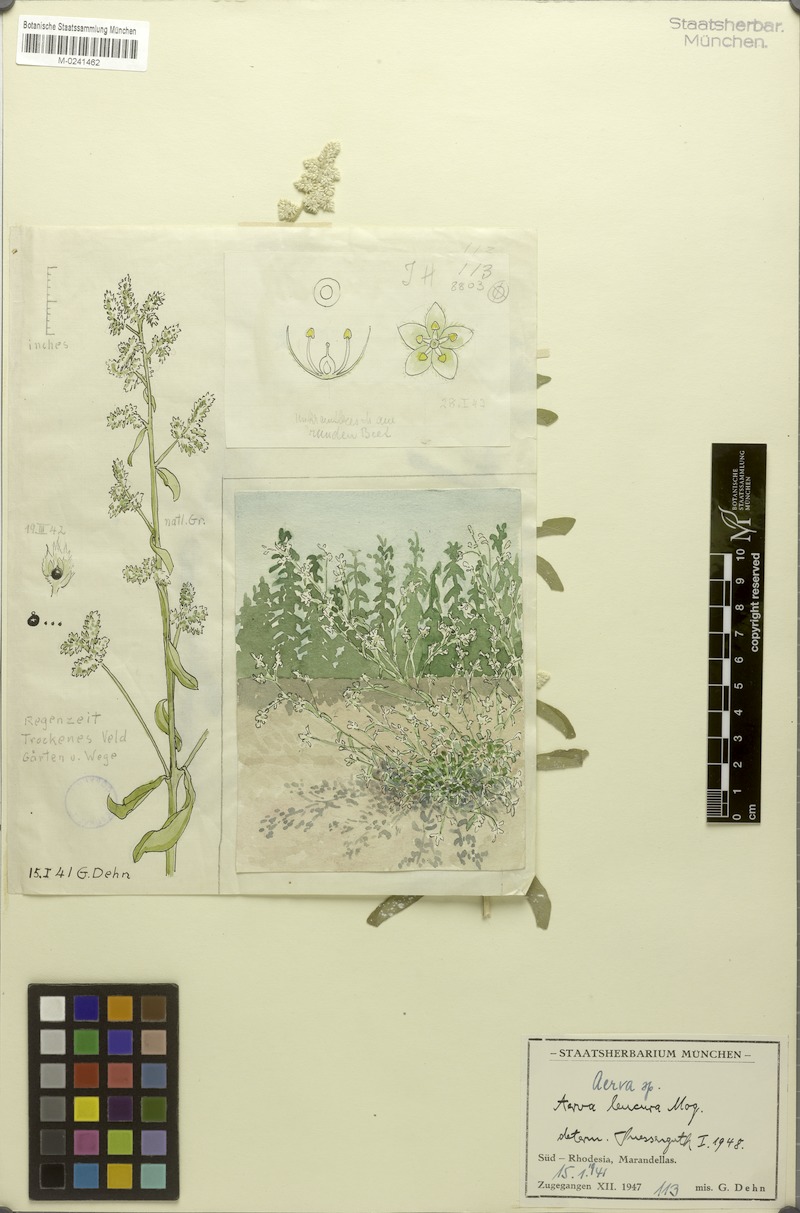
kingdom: Plantae
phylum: Tracheophyta
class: Magnoliopsida
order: Caryophyllales
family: Amaranthaceae
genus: Ouret
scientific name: Ouret leucura
